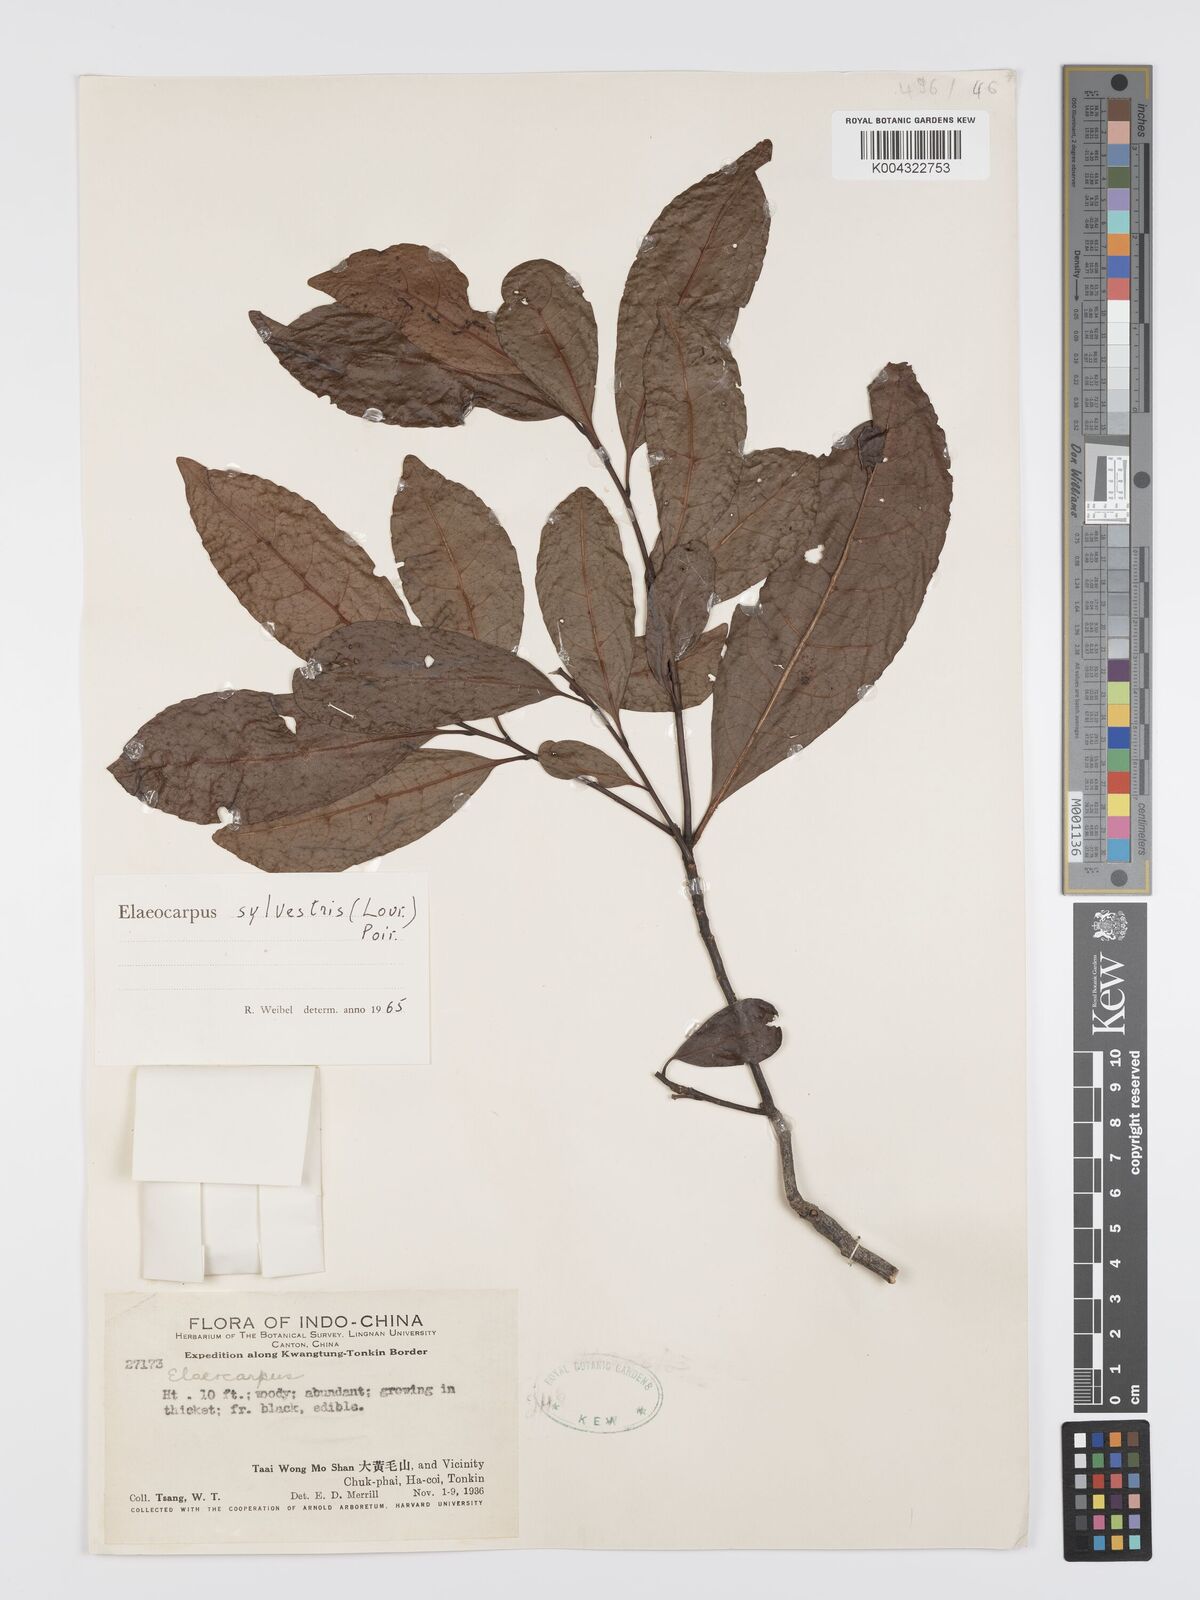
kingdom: Plantae
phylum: Tracheophyta
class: Magnoliopsida
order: Oxalidales
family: Elaeocarpaceae
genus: Elaeocarpus
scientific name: Elaeocarpus sylvestris
